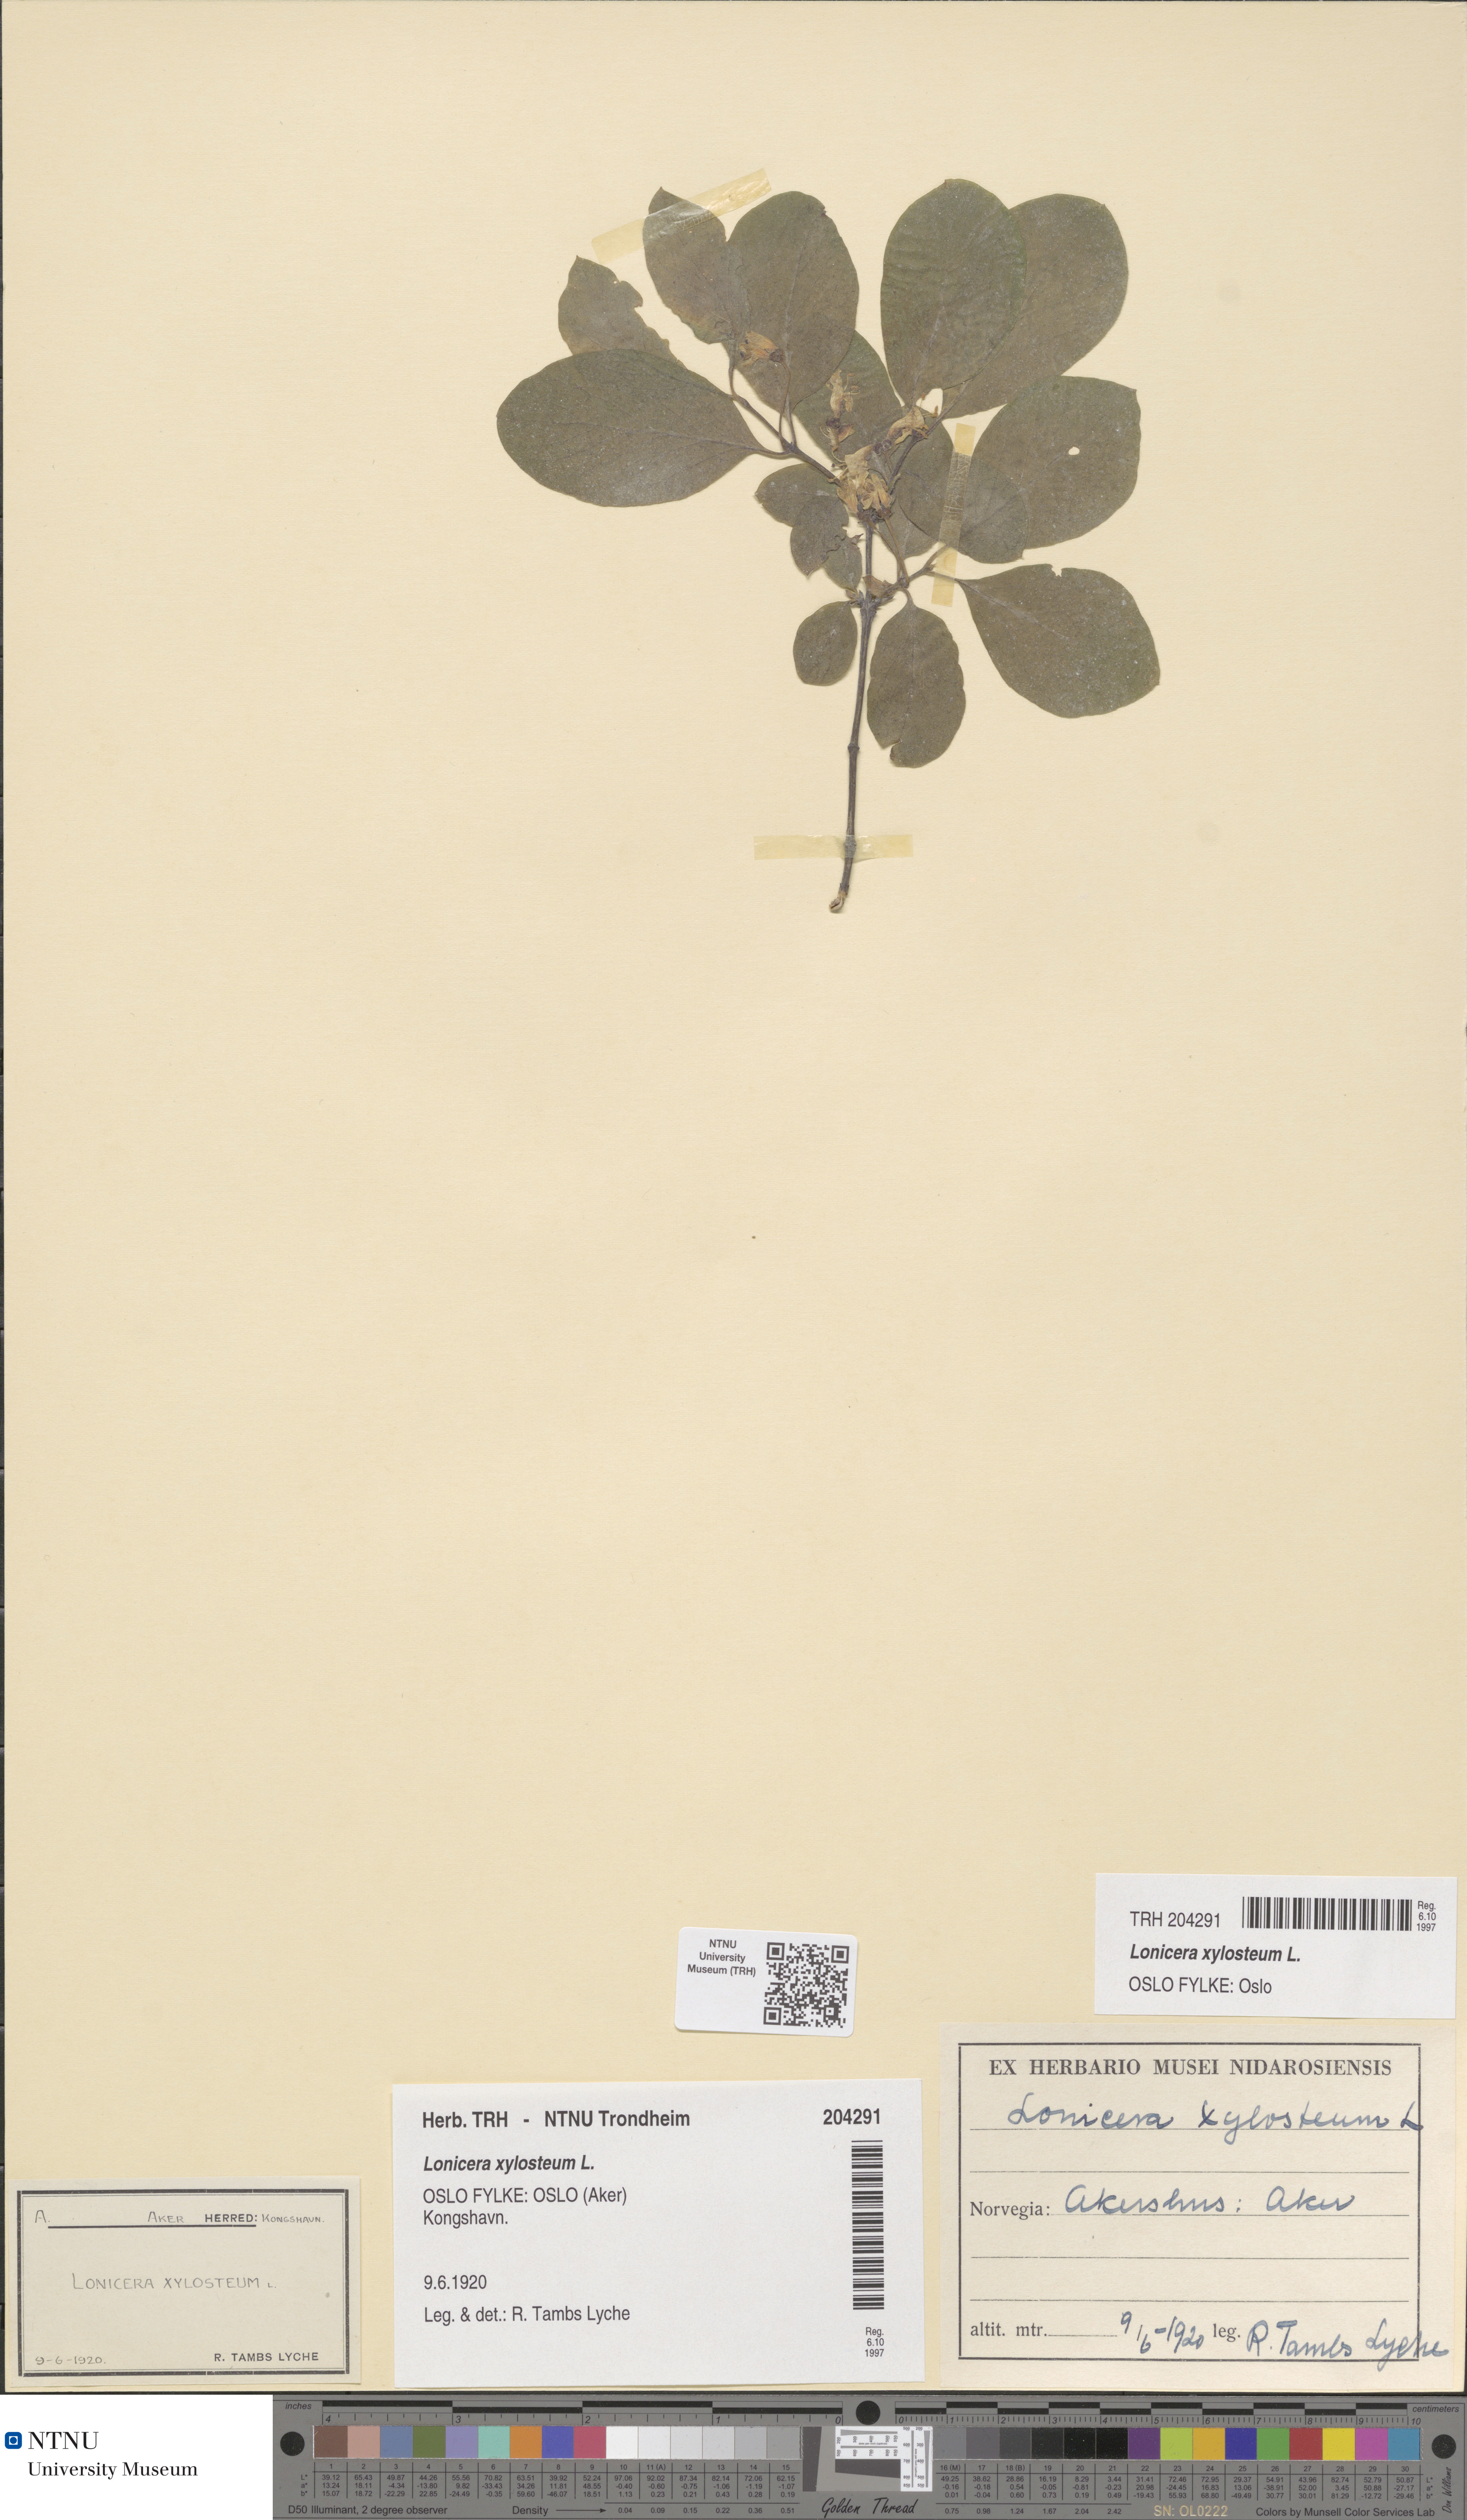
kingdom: Plantae
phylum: Tracheophyta
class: Magnoliopsida
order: Dipsacales
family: Caprifoliaceae
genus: Lonicera
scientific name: Lonicera xylosteum
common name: Fly honeysuckle
